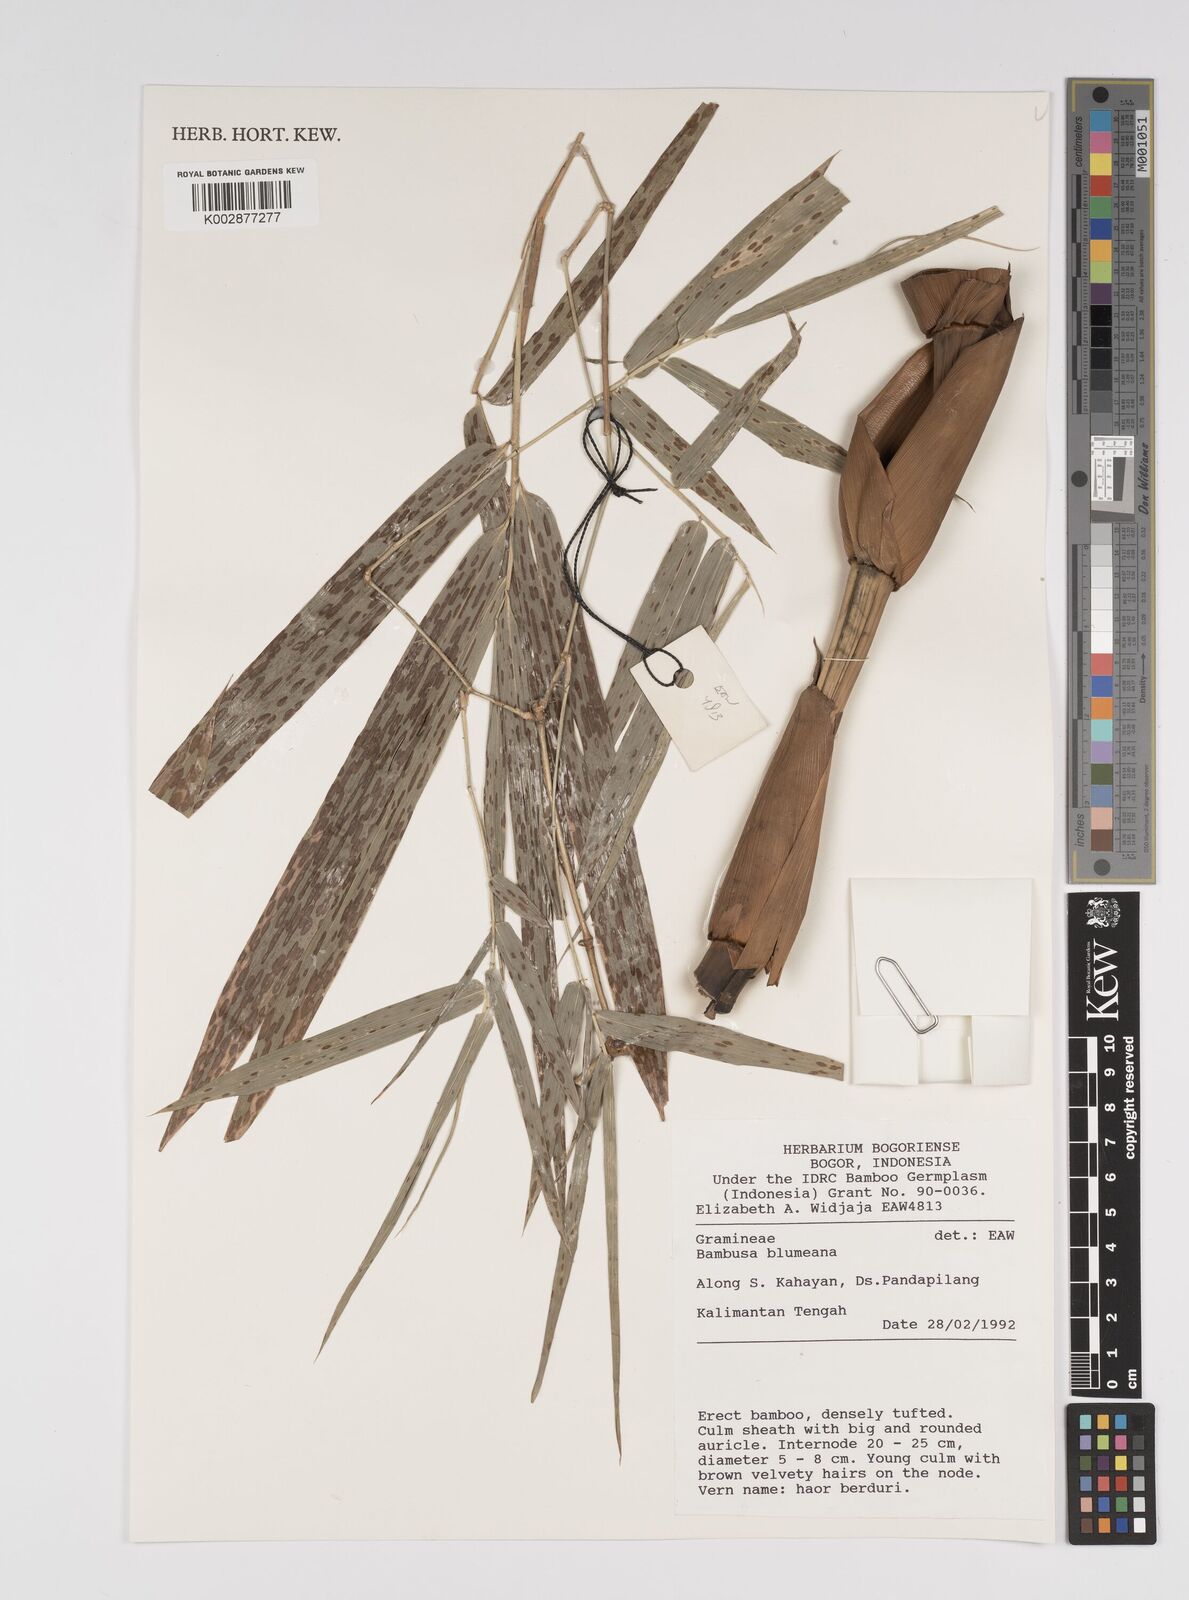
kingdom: Plantae
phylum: Tracheophyta
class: Liliopsida
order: Poales
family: Poaceae
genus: Bambusa
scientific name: Bambusa spinosa
